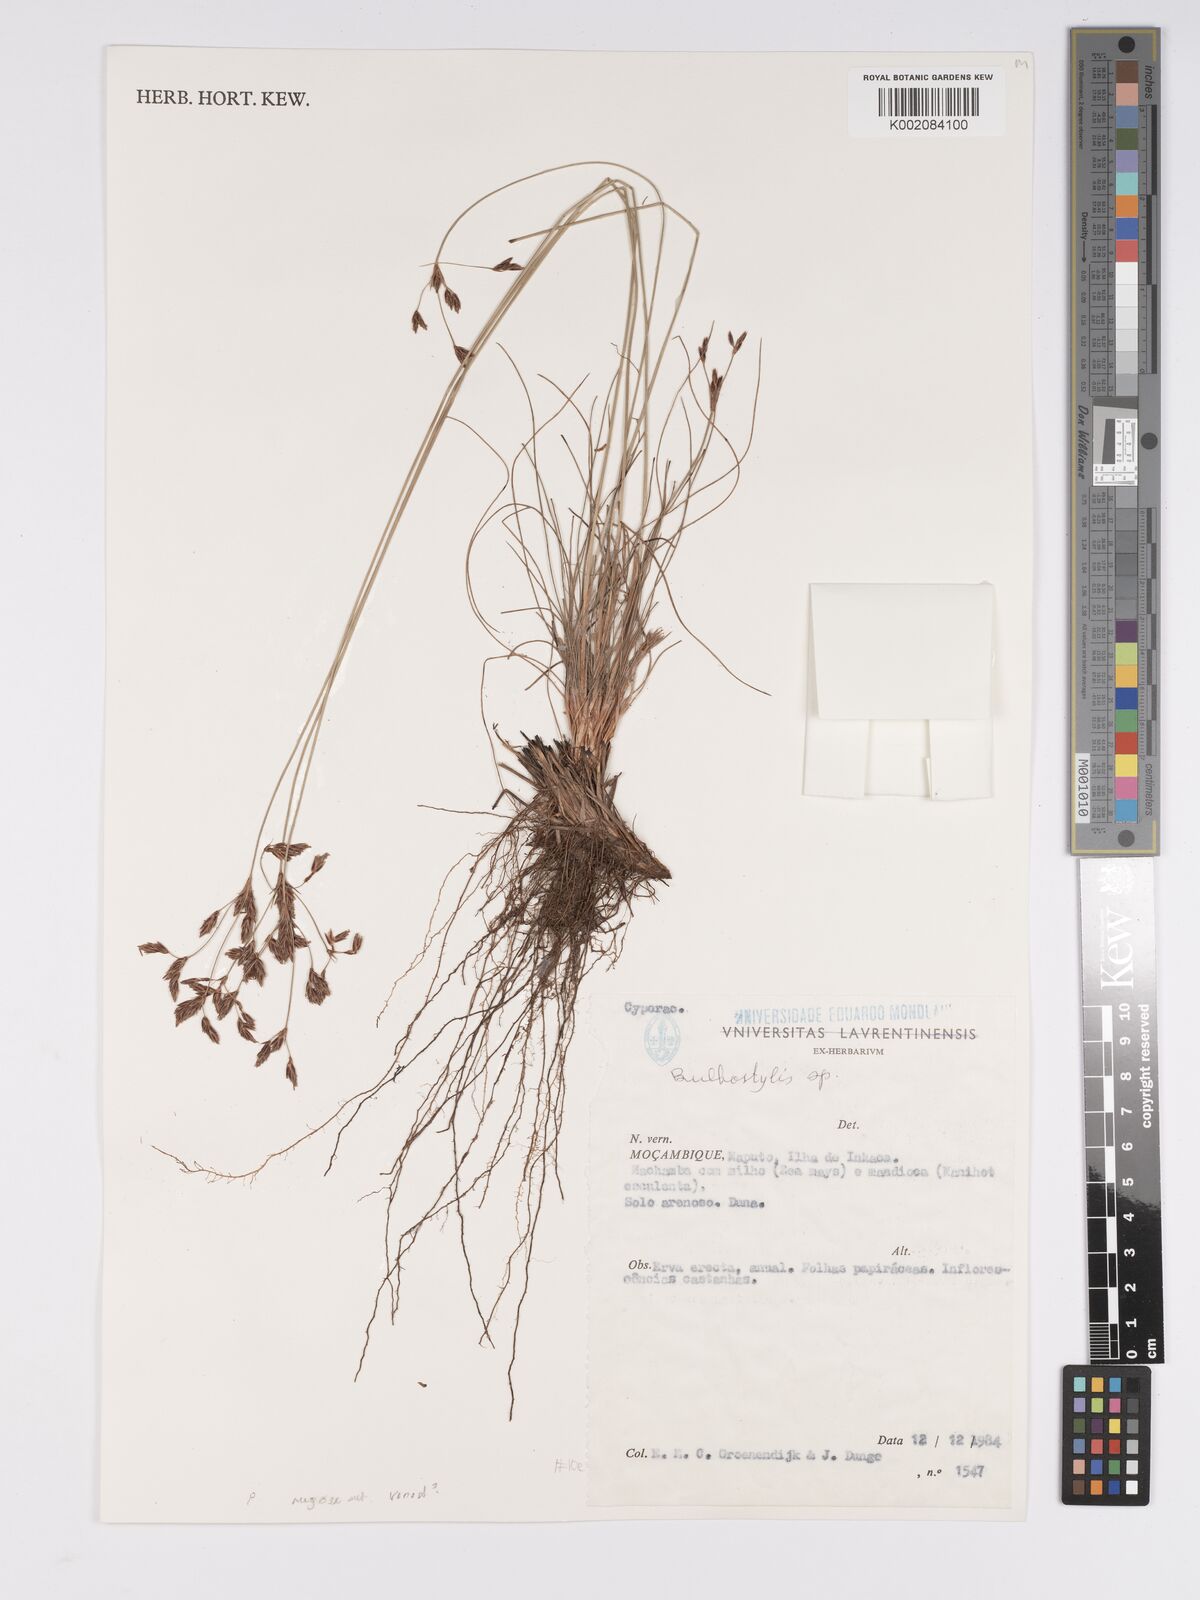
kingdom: Plantae
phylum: Tracheophyta
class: Liliopsida
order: Poales
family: Cyperaceae
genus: Bulbostylis
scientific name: Bulbostylis
